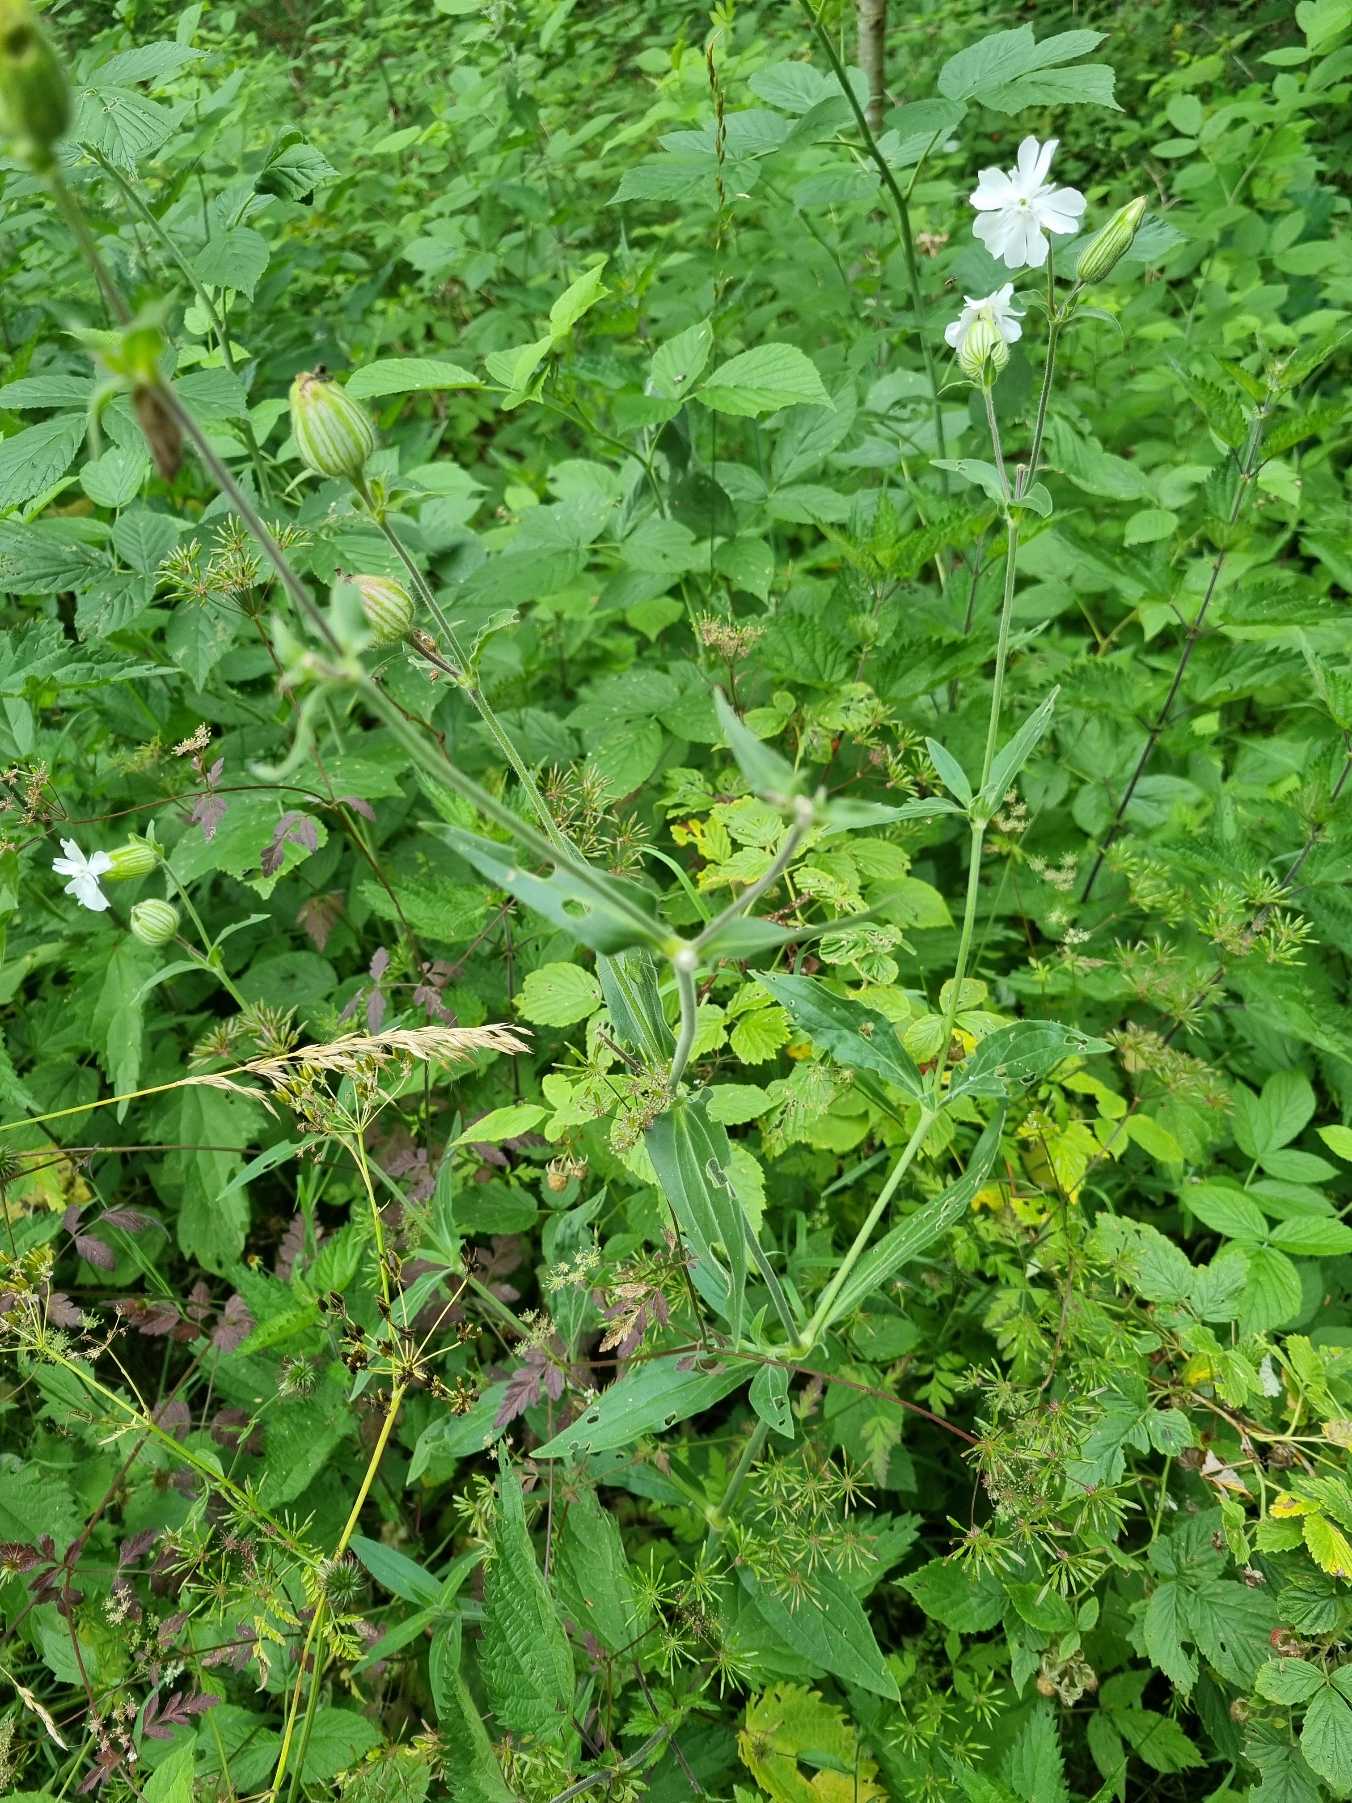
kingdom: Plantae
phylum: Tracheophyta
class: Magnoliopsida
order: Caryophyllales
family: Caryophyllaceae
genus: Silene
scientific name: Silene latifolia
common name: Aftenpragtstjerne
